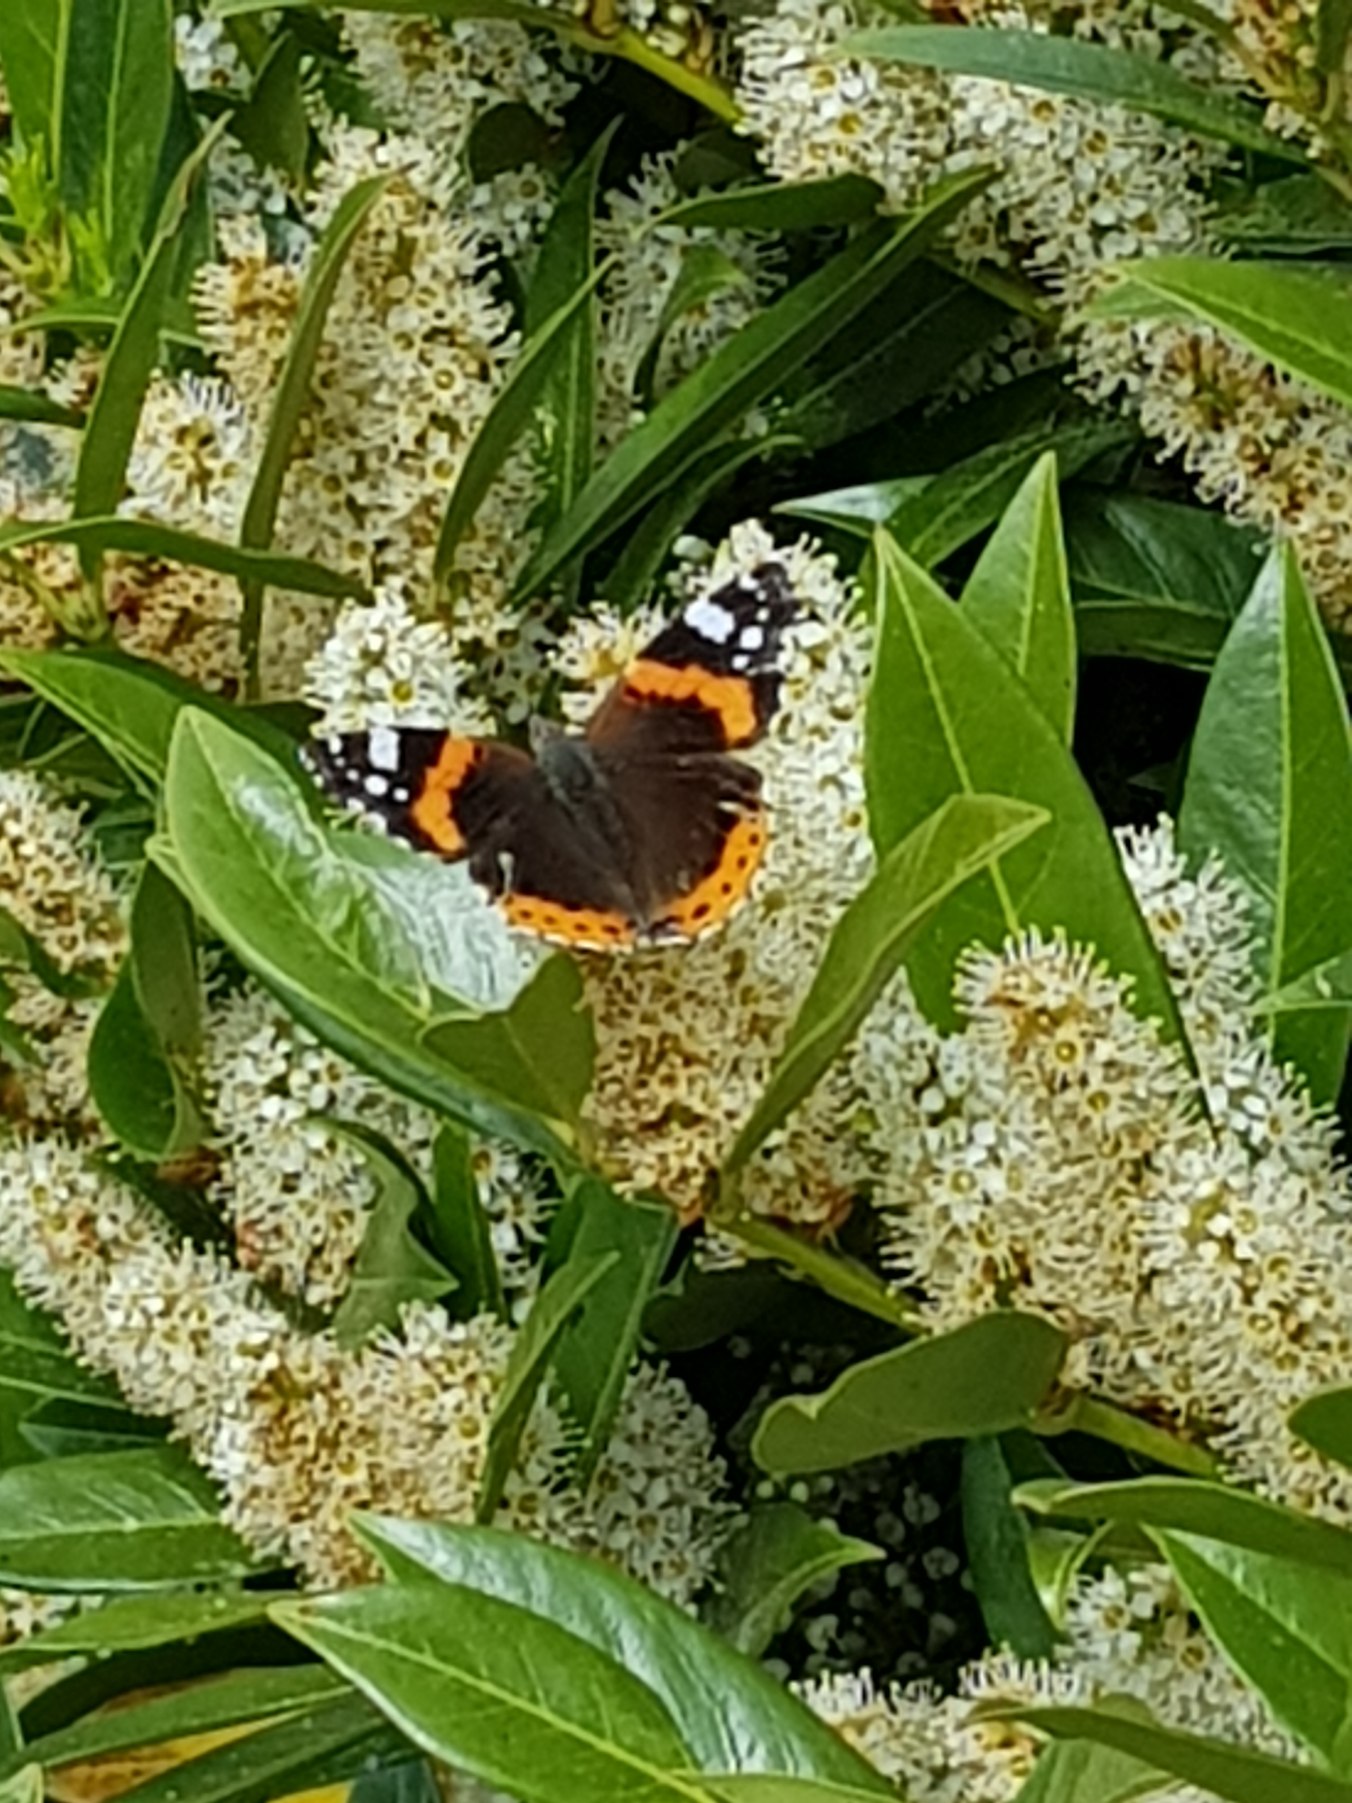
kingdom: Animalia
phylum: Arthropoda
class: Insecta
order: Lepidoptera
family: Nymphalidae
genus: Vanessa
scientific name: Vanessa atalanta
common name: Admiral
